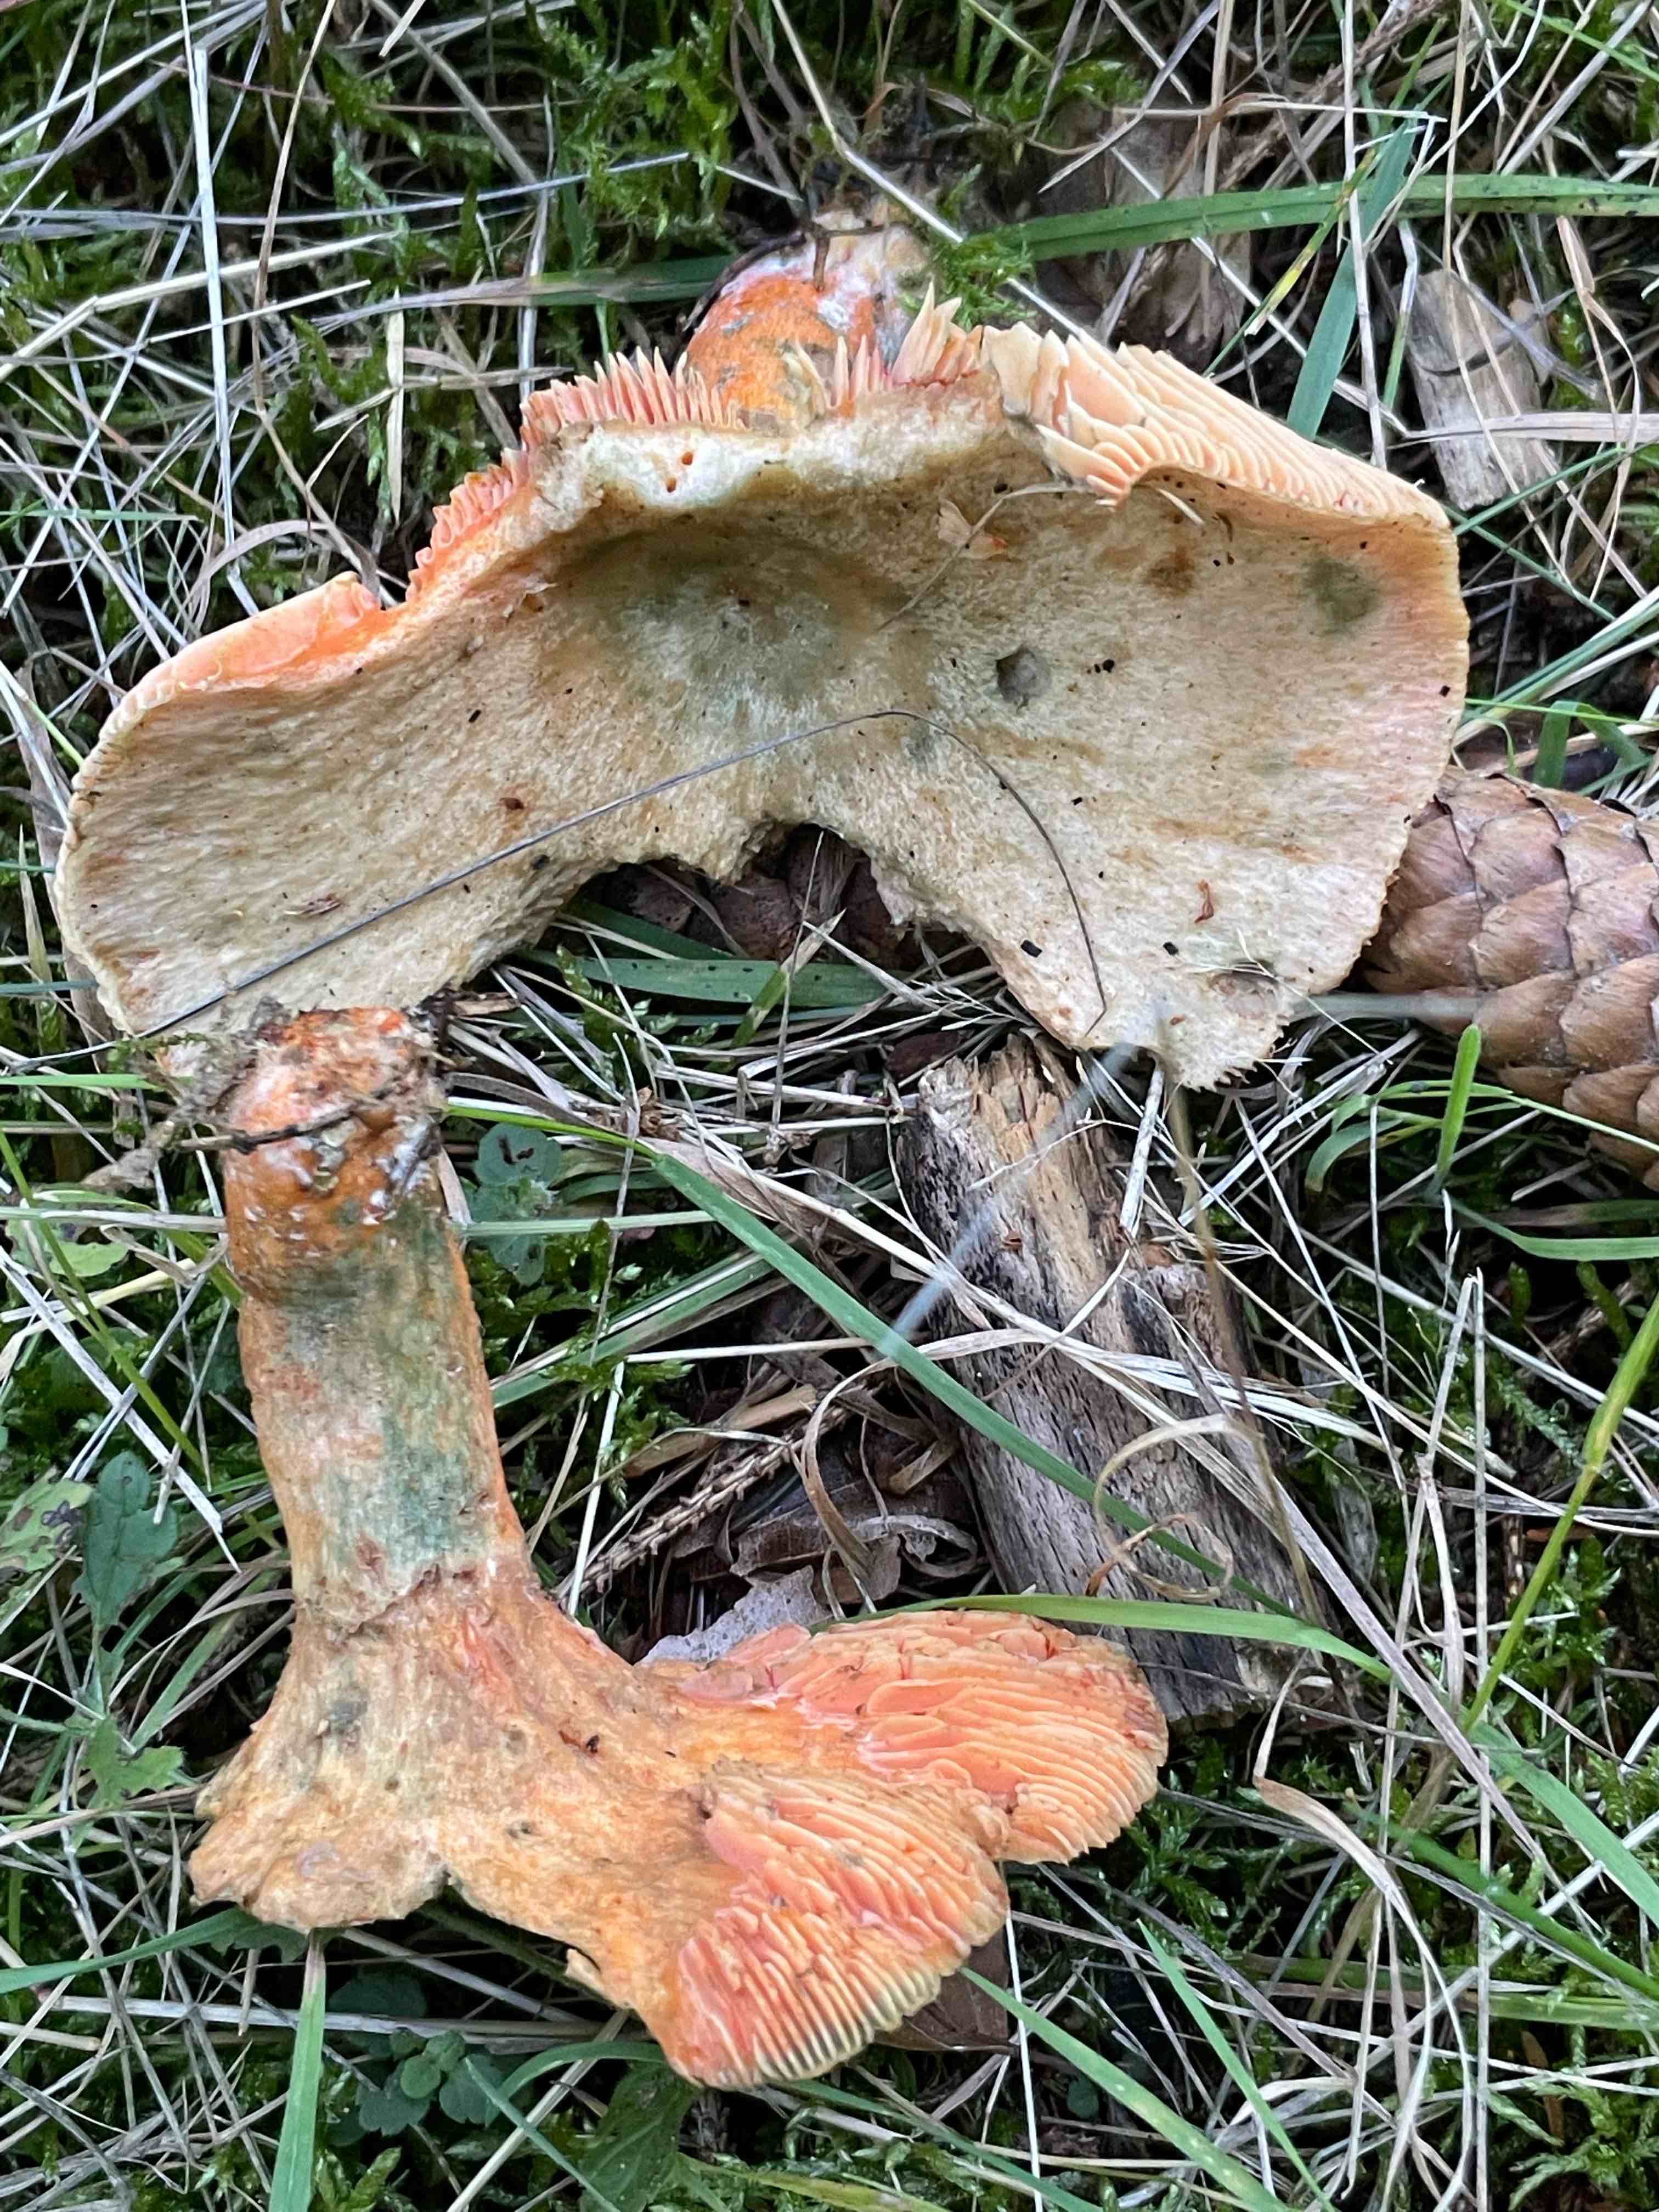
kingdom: Fungi
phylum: Basidiomycota
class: Agaricomycetes
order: Russulales
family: Russulaceae
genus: Lactarius
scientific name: Lactarius deterrimus
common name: gran-mælkehat
